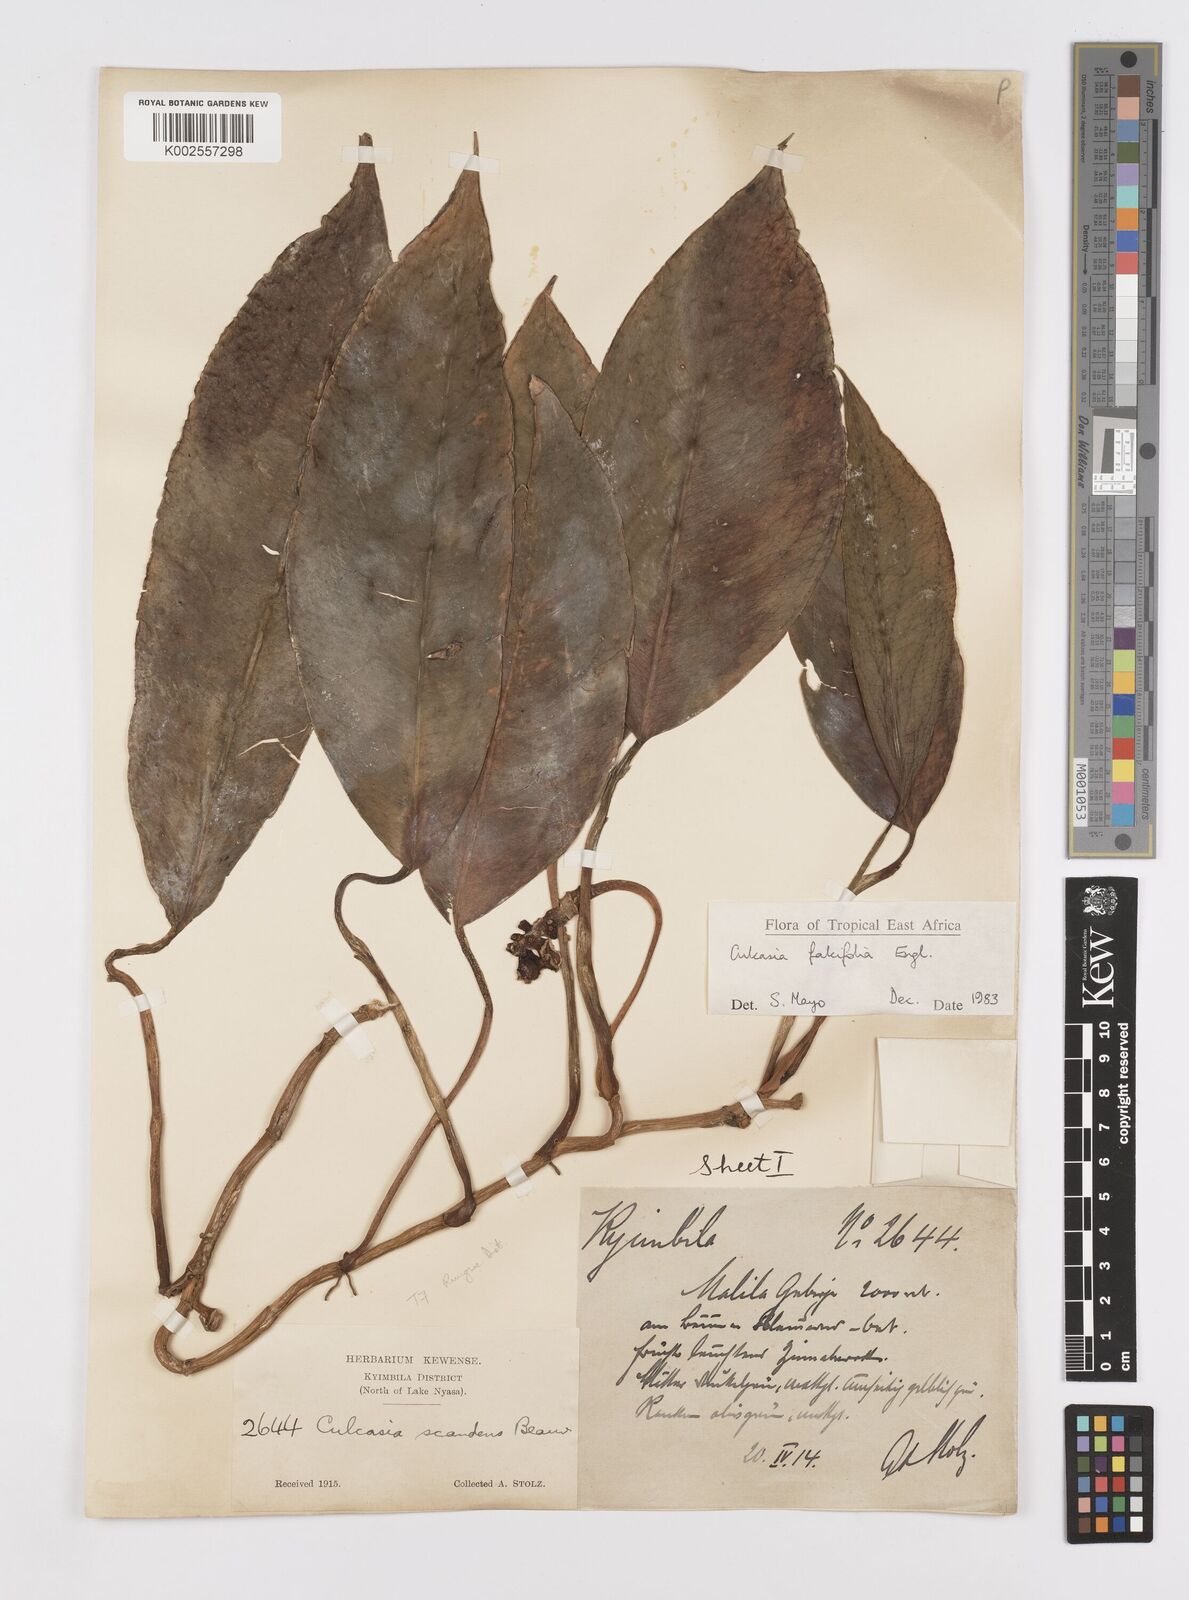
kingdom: Plantae
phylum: Tracheophyta
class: Liliopsida
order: Alismatales
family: Araceae
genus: Culcasia
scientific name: Culcasia falcifolia
